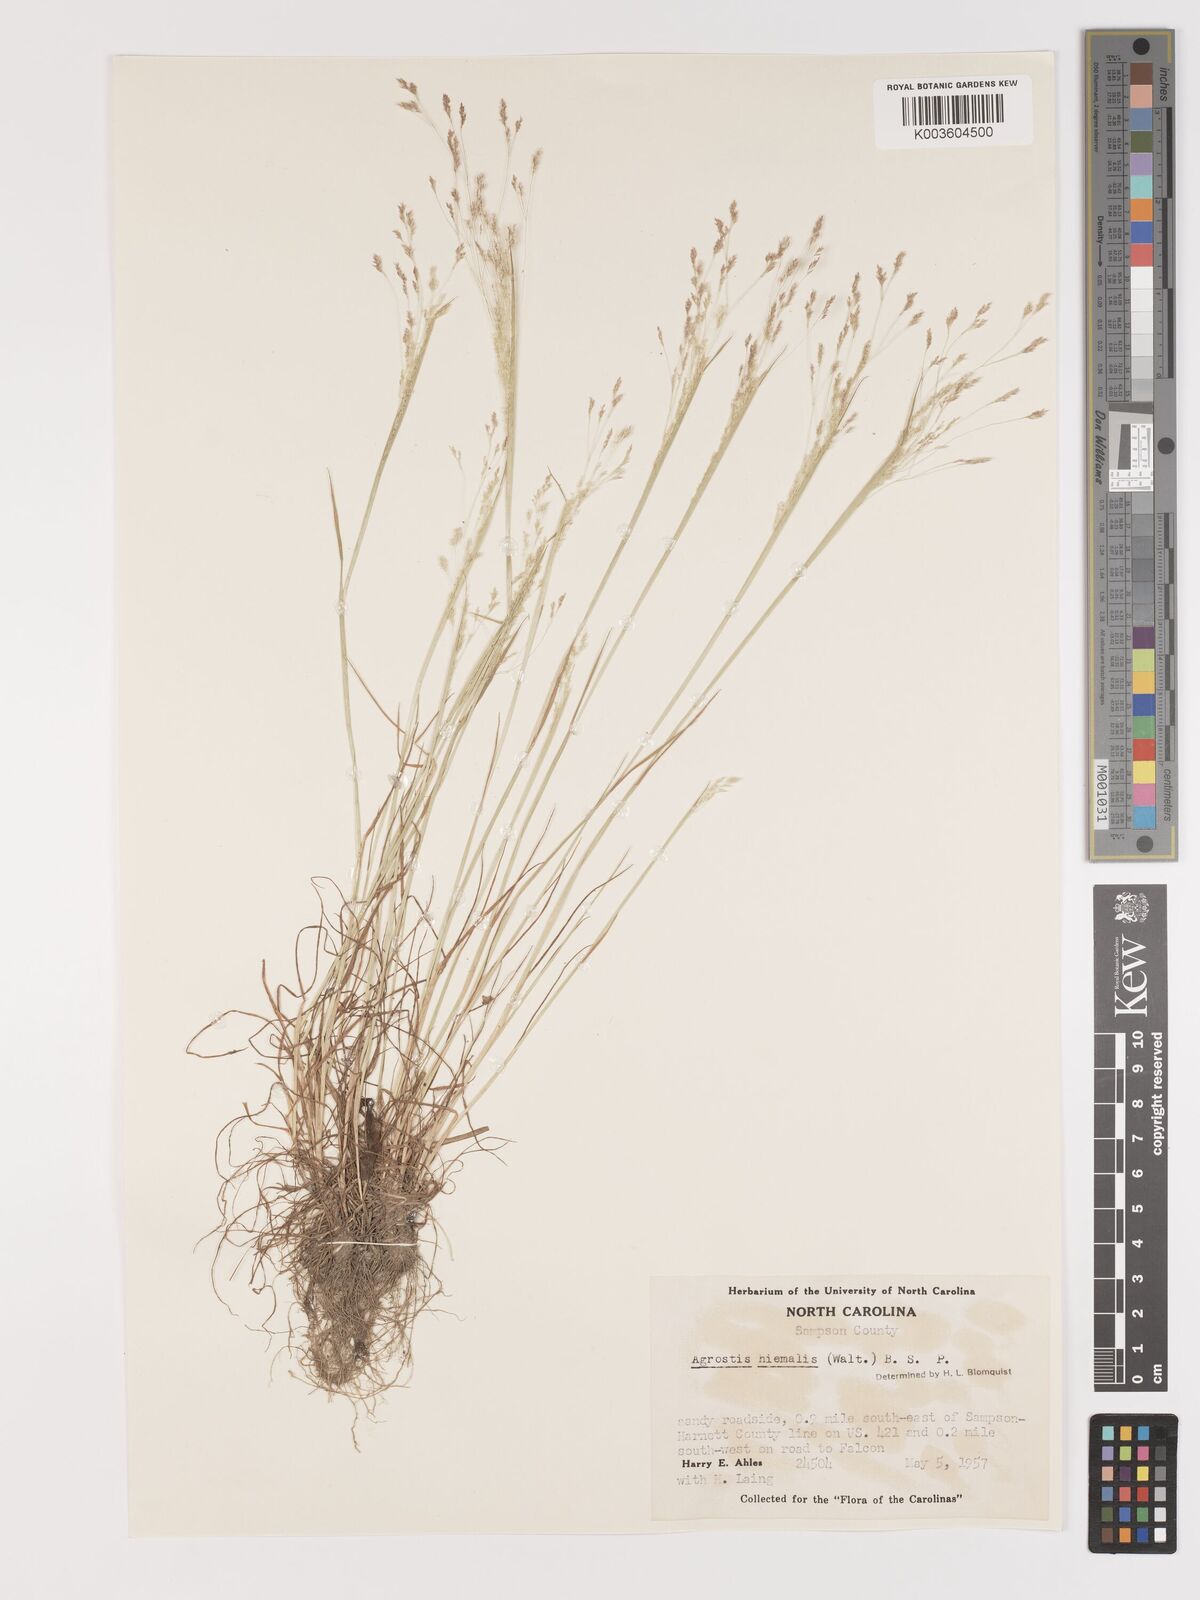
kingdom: Plantae
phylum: Tracheophyta
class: Liliopsida
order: Poales
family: Poaceae
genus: Agrostis
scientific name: Agrostis hyemalis
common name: Small bent
